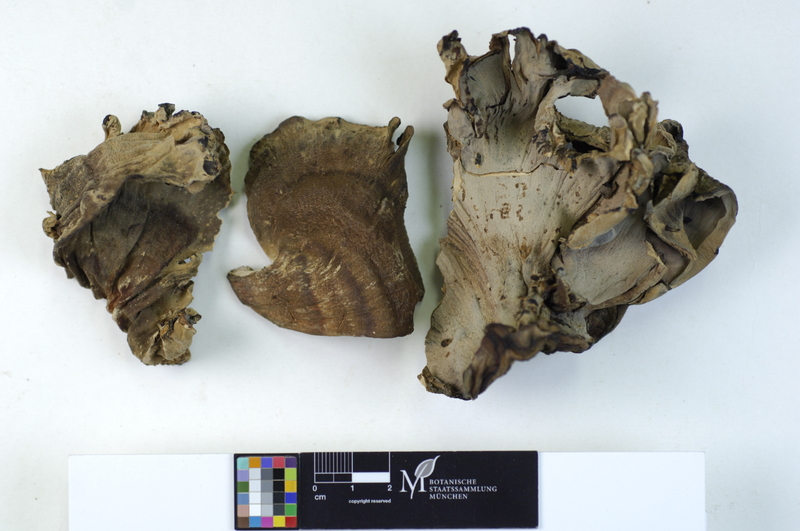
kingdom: Fungi
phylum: Basidiomycota
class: Agaricomycetes
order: Polyporales
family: Meripilaceae
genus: Meripilus
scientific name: Meripilus giganteus
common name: Giant polypore
